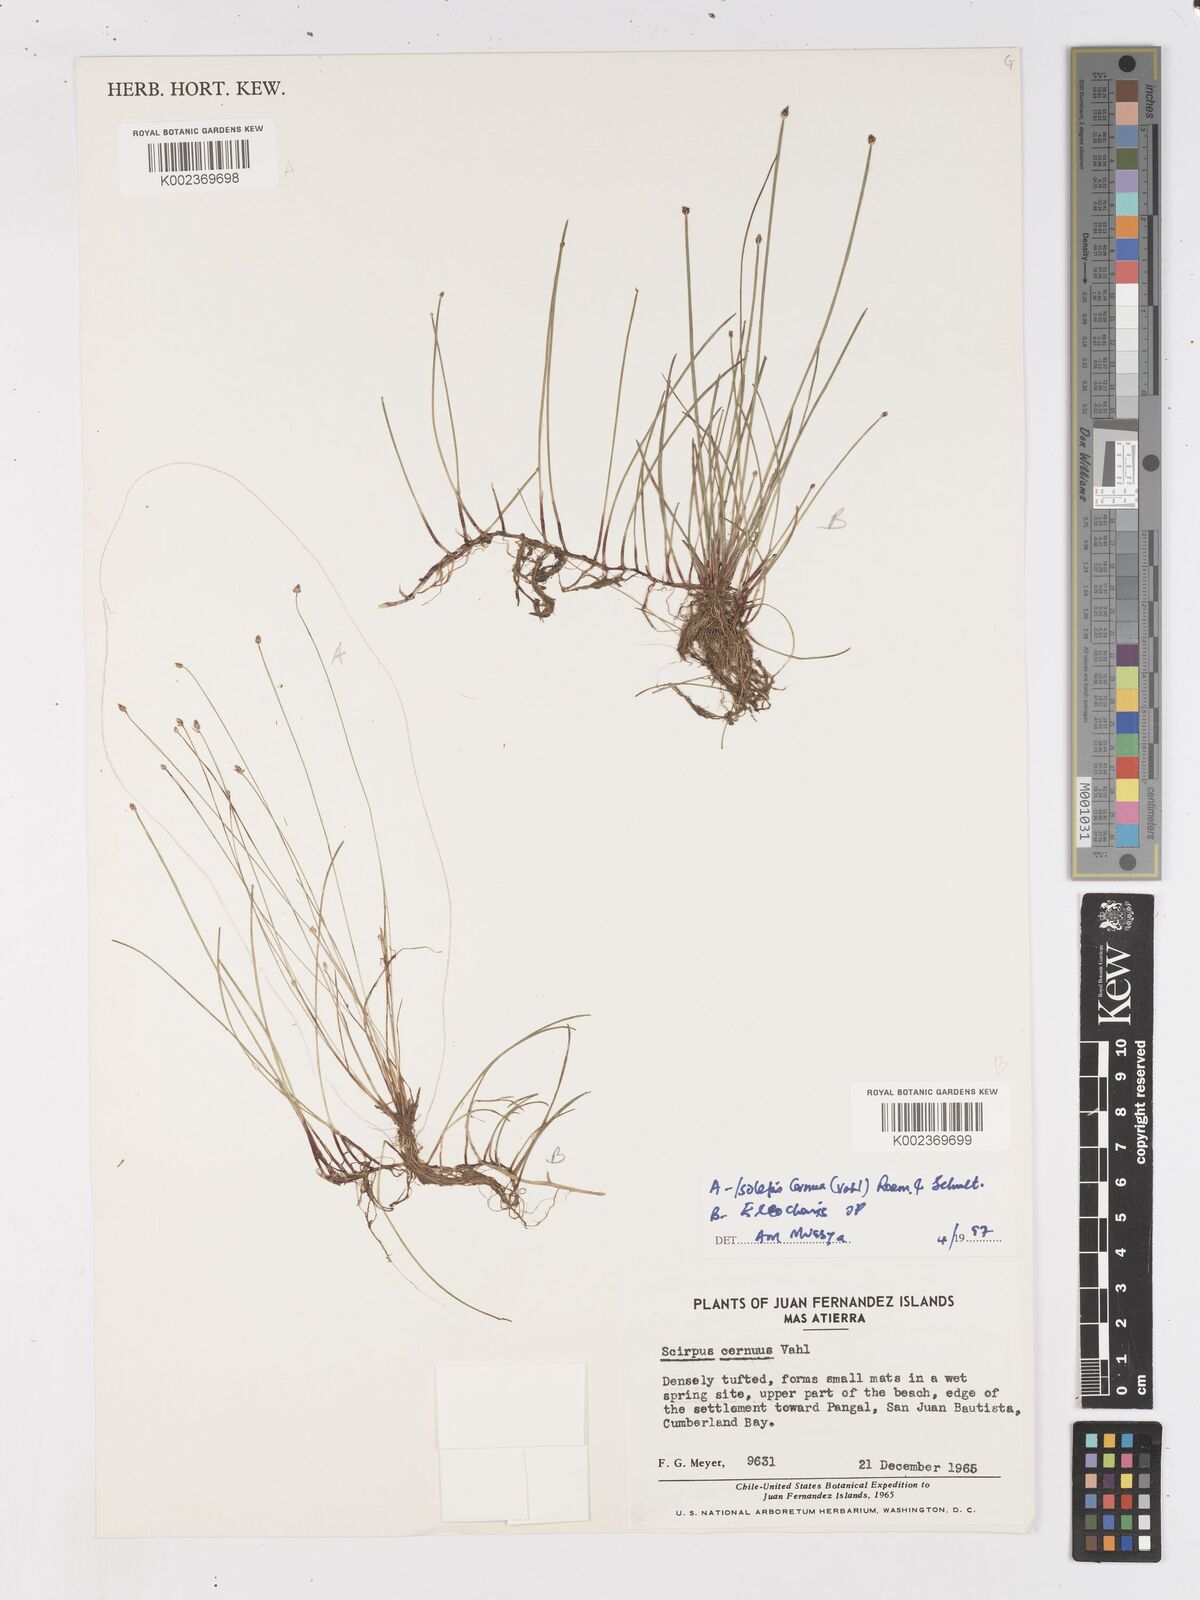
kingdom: Plantae
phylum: Tracheophyta
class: Liliopsida
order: Poales
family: Cyperaceae
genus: Isolepis
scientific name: Isolepis cernua
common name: Slender club-rush
